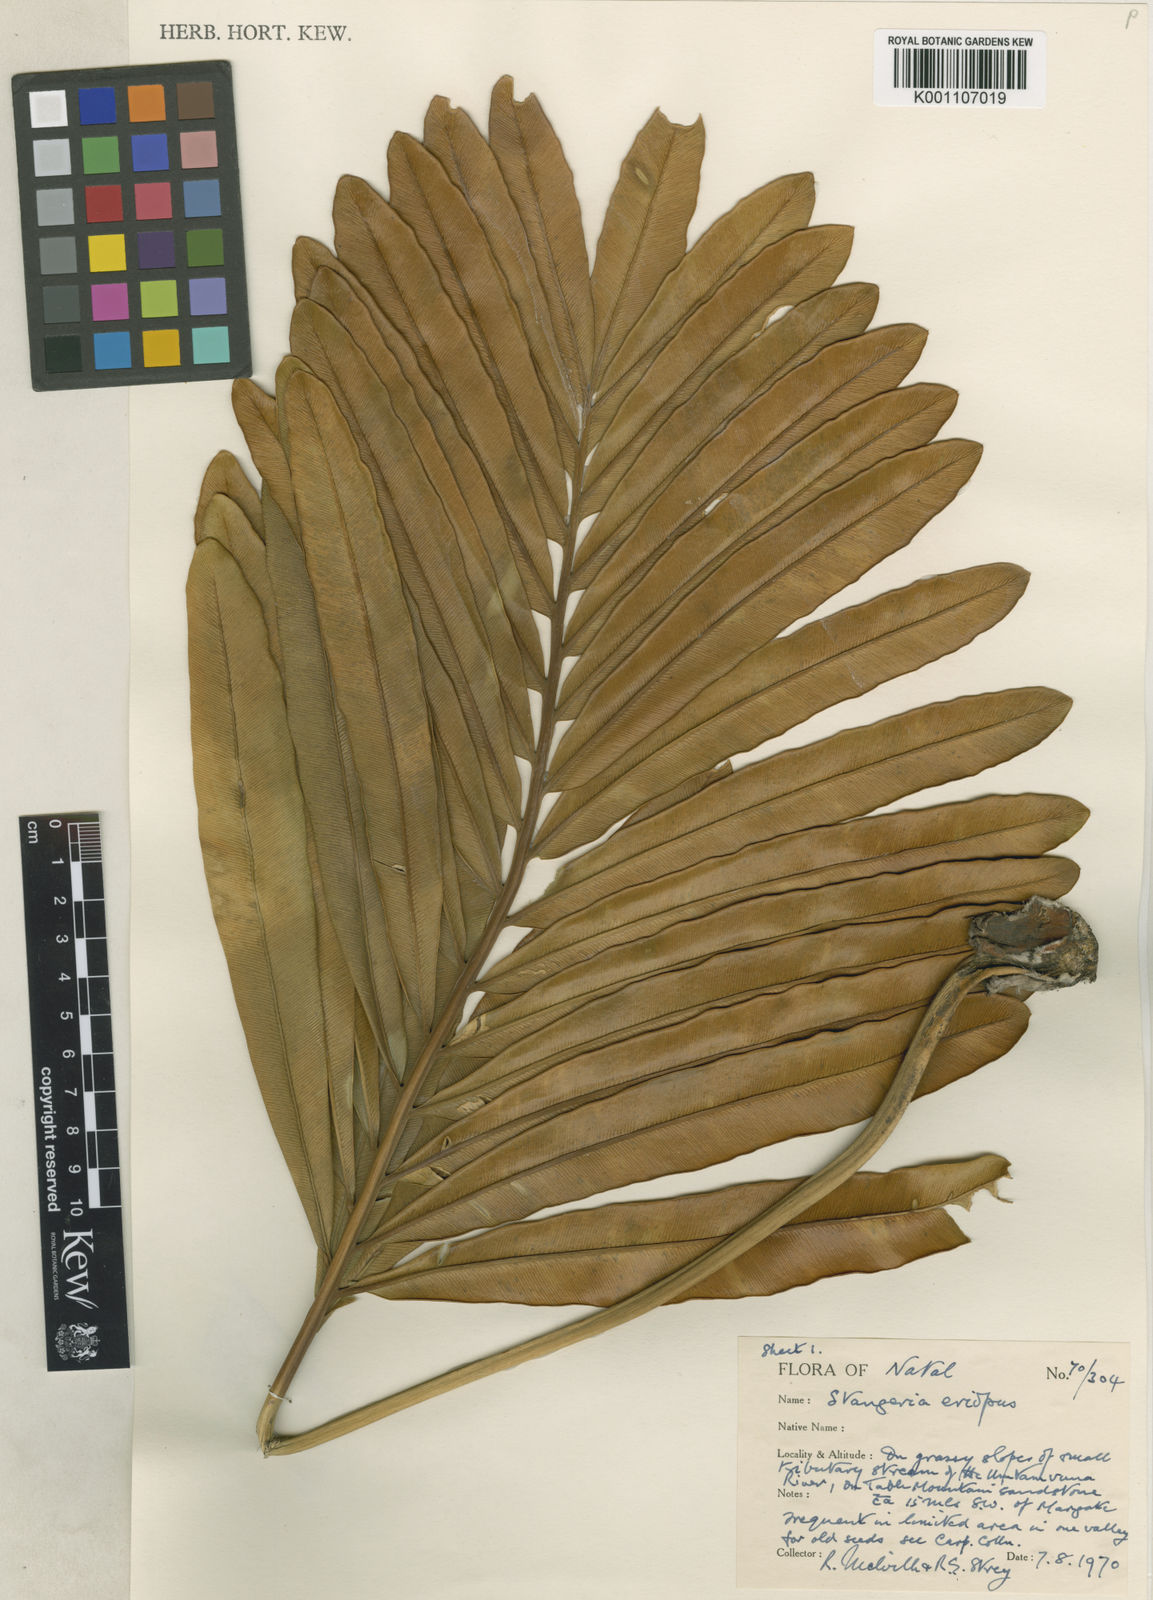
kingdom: Plantae
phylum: Tracheophyta
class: Cycadopsida
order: Cycadales
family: Zamiaceae
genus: Stangeria
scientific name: Stangeria
